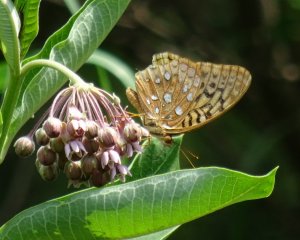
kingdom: Animalia
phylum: Arthropoda
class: Insecta
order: Lepidoptera
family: Nymphalidae
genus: Speyeria
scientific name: Speyeria cybele
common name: Great Spangled Fritillary
